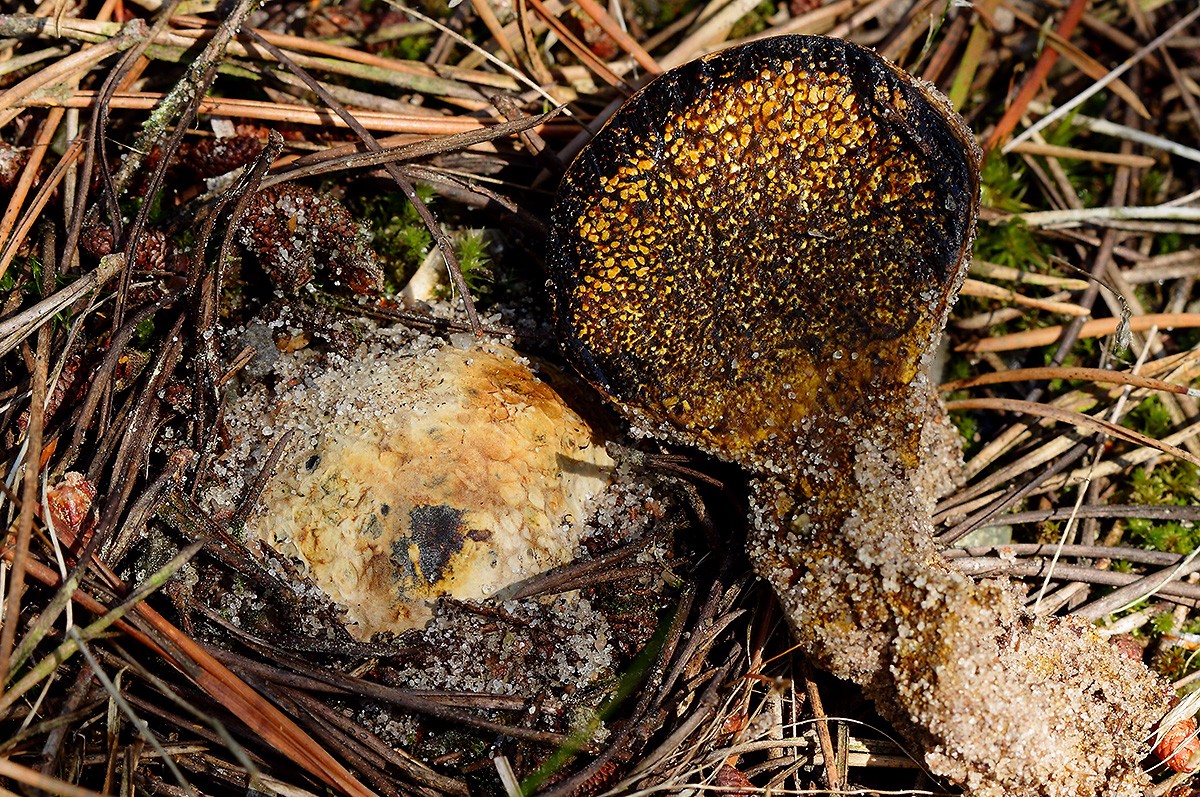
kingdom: Fungi
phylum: Basidiomycota
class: Agaricomycetes
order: Boletales
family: Sclerodermataceae
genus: Pisolithus
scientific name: Pisolithus capsulifer
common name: farvebold
